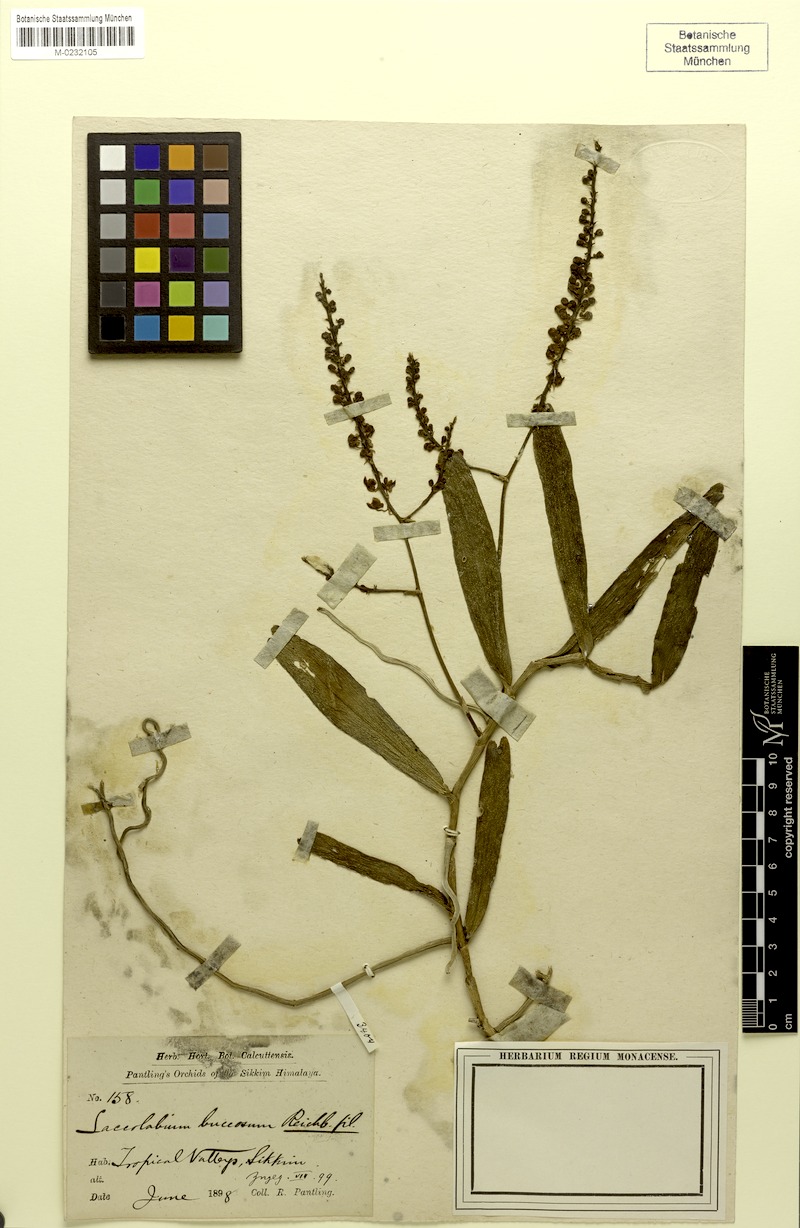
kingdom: Plantae
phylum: Tracheophyta
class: Liliopsida
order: Asparagales
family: Orchidaceae
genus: Robiquetia
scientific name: Robiquetia succisa
